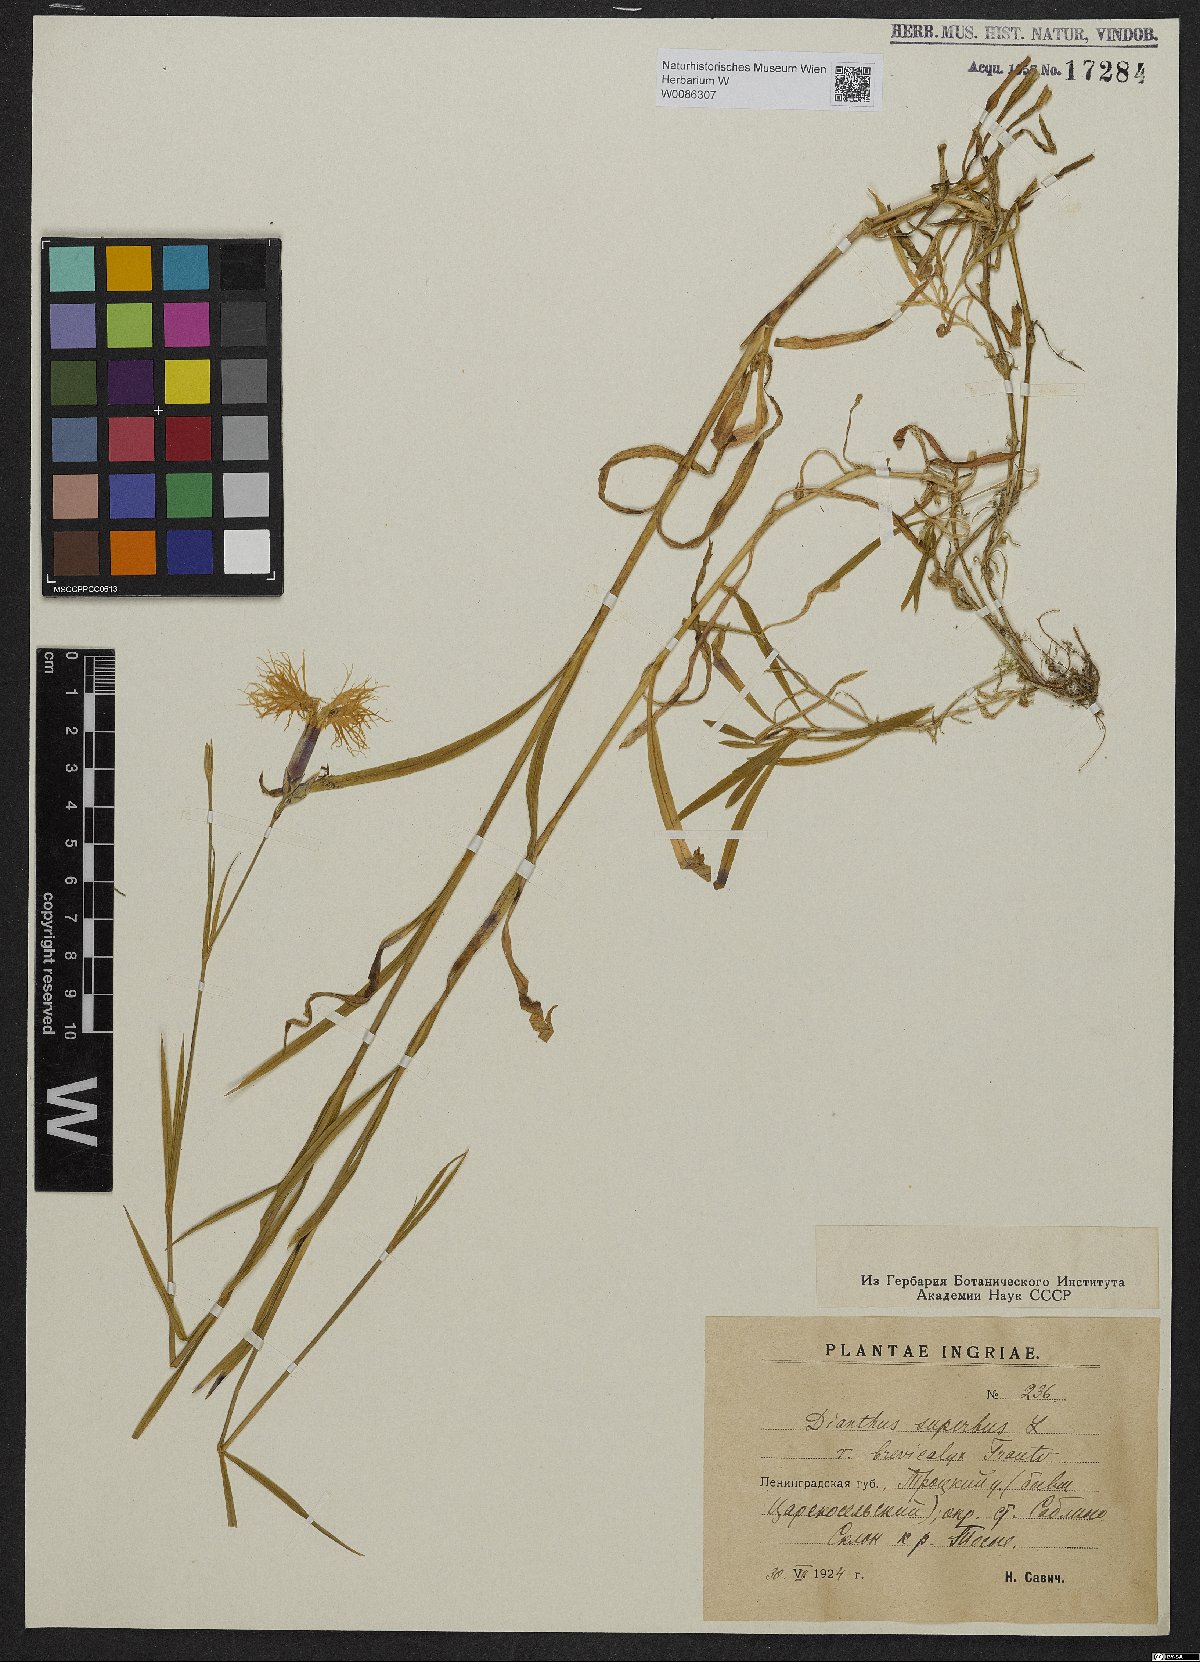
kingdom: Plantae
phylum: Tracheophyta
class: Magnoliopsida
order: Caryophyllales
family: Caryophyllaceae
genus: Dianthus
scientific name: Dianthus superbus
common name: Fringed pink
